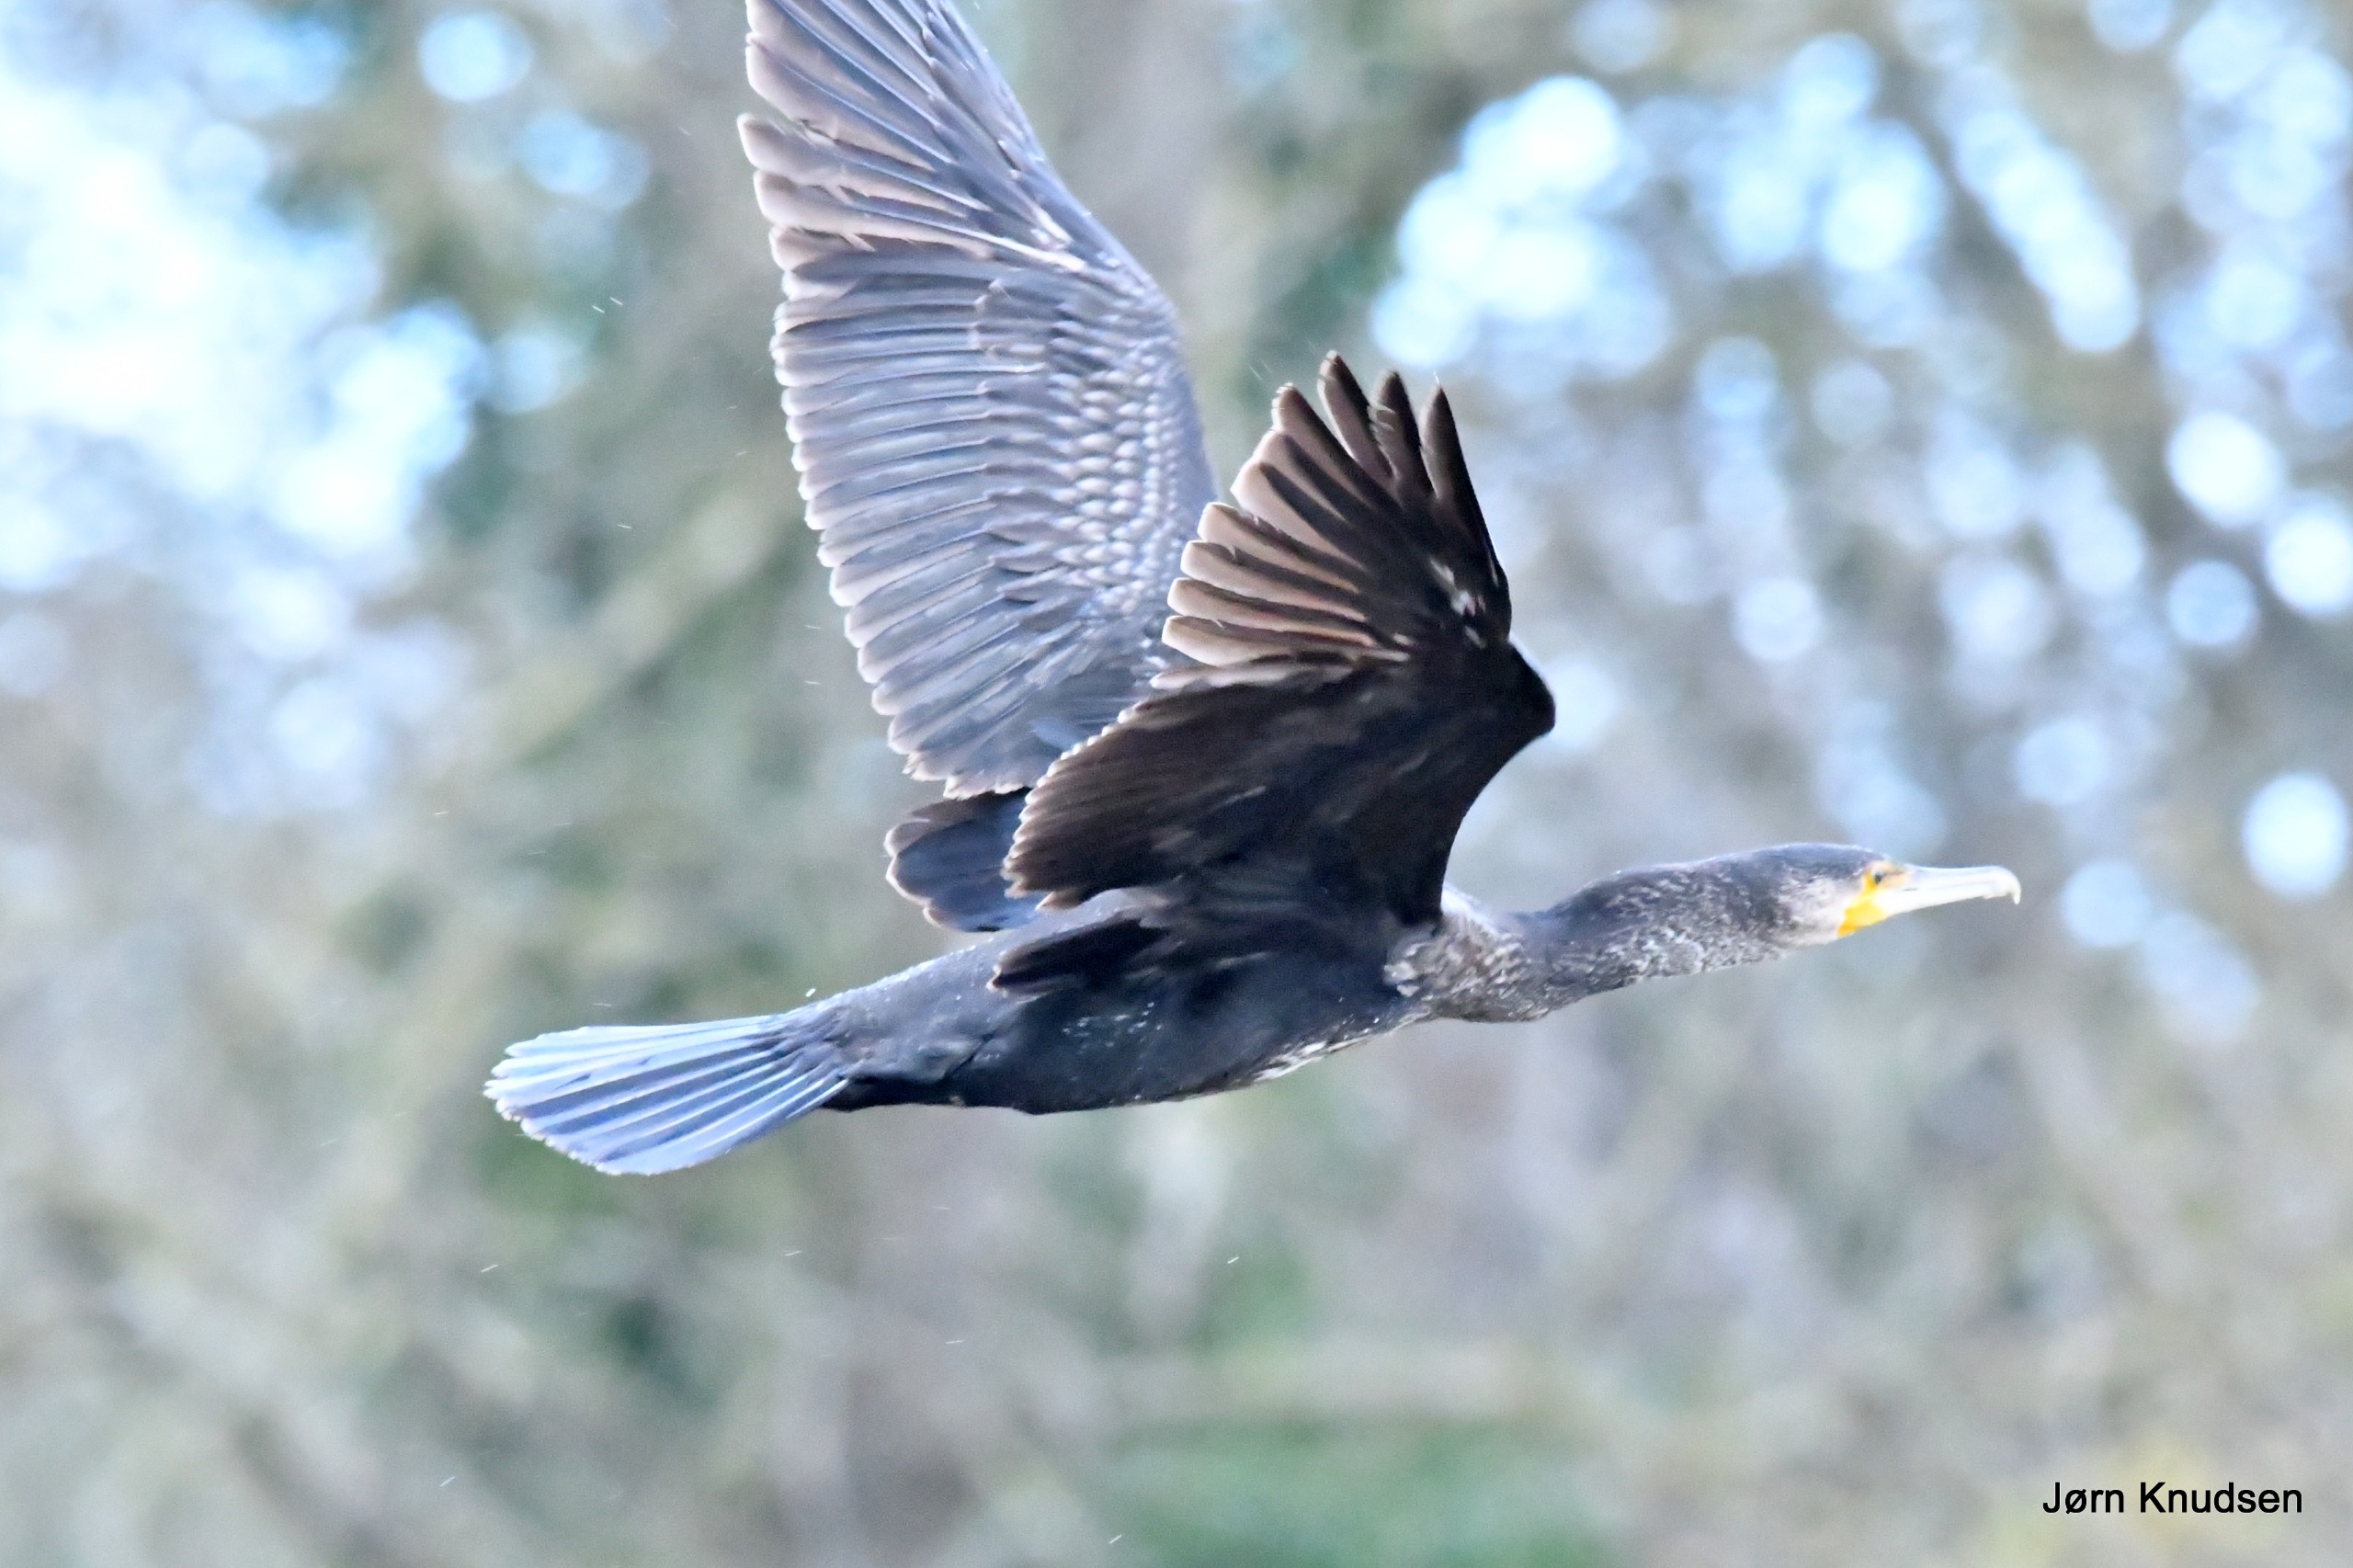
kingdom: Animalia
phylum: Chordata
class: Aves
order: Suliformes
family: Phalacrocoracidae
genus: Phalacrocorax
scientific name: Phalacrocorax carbo
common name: Skarv
